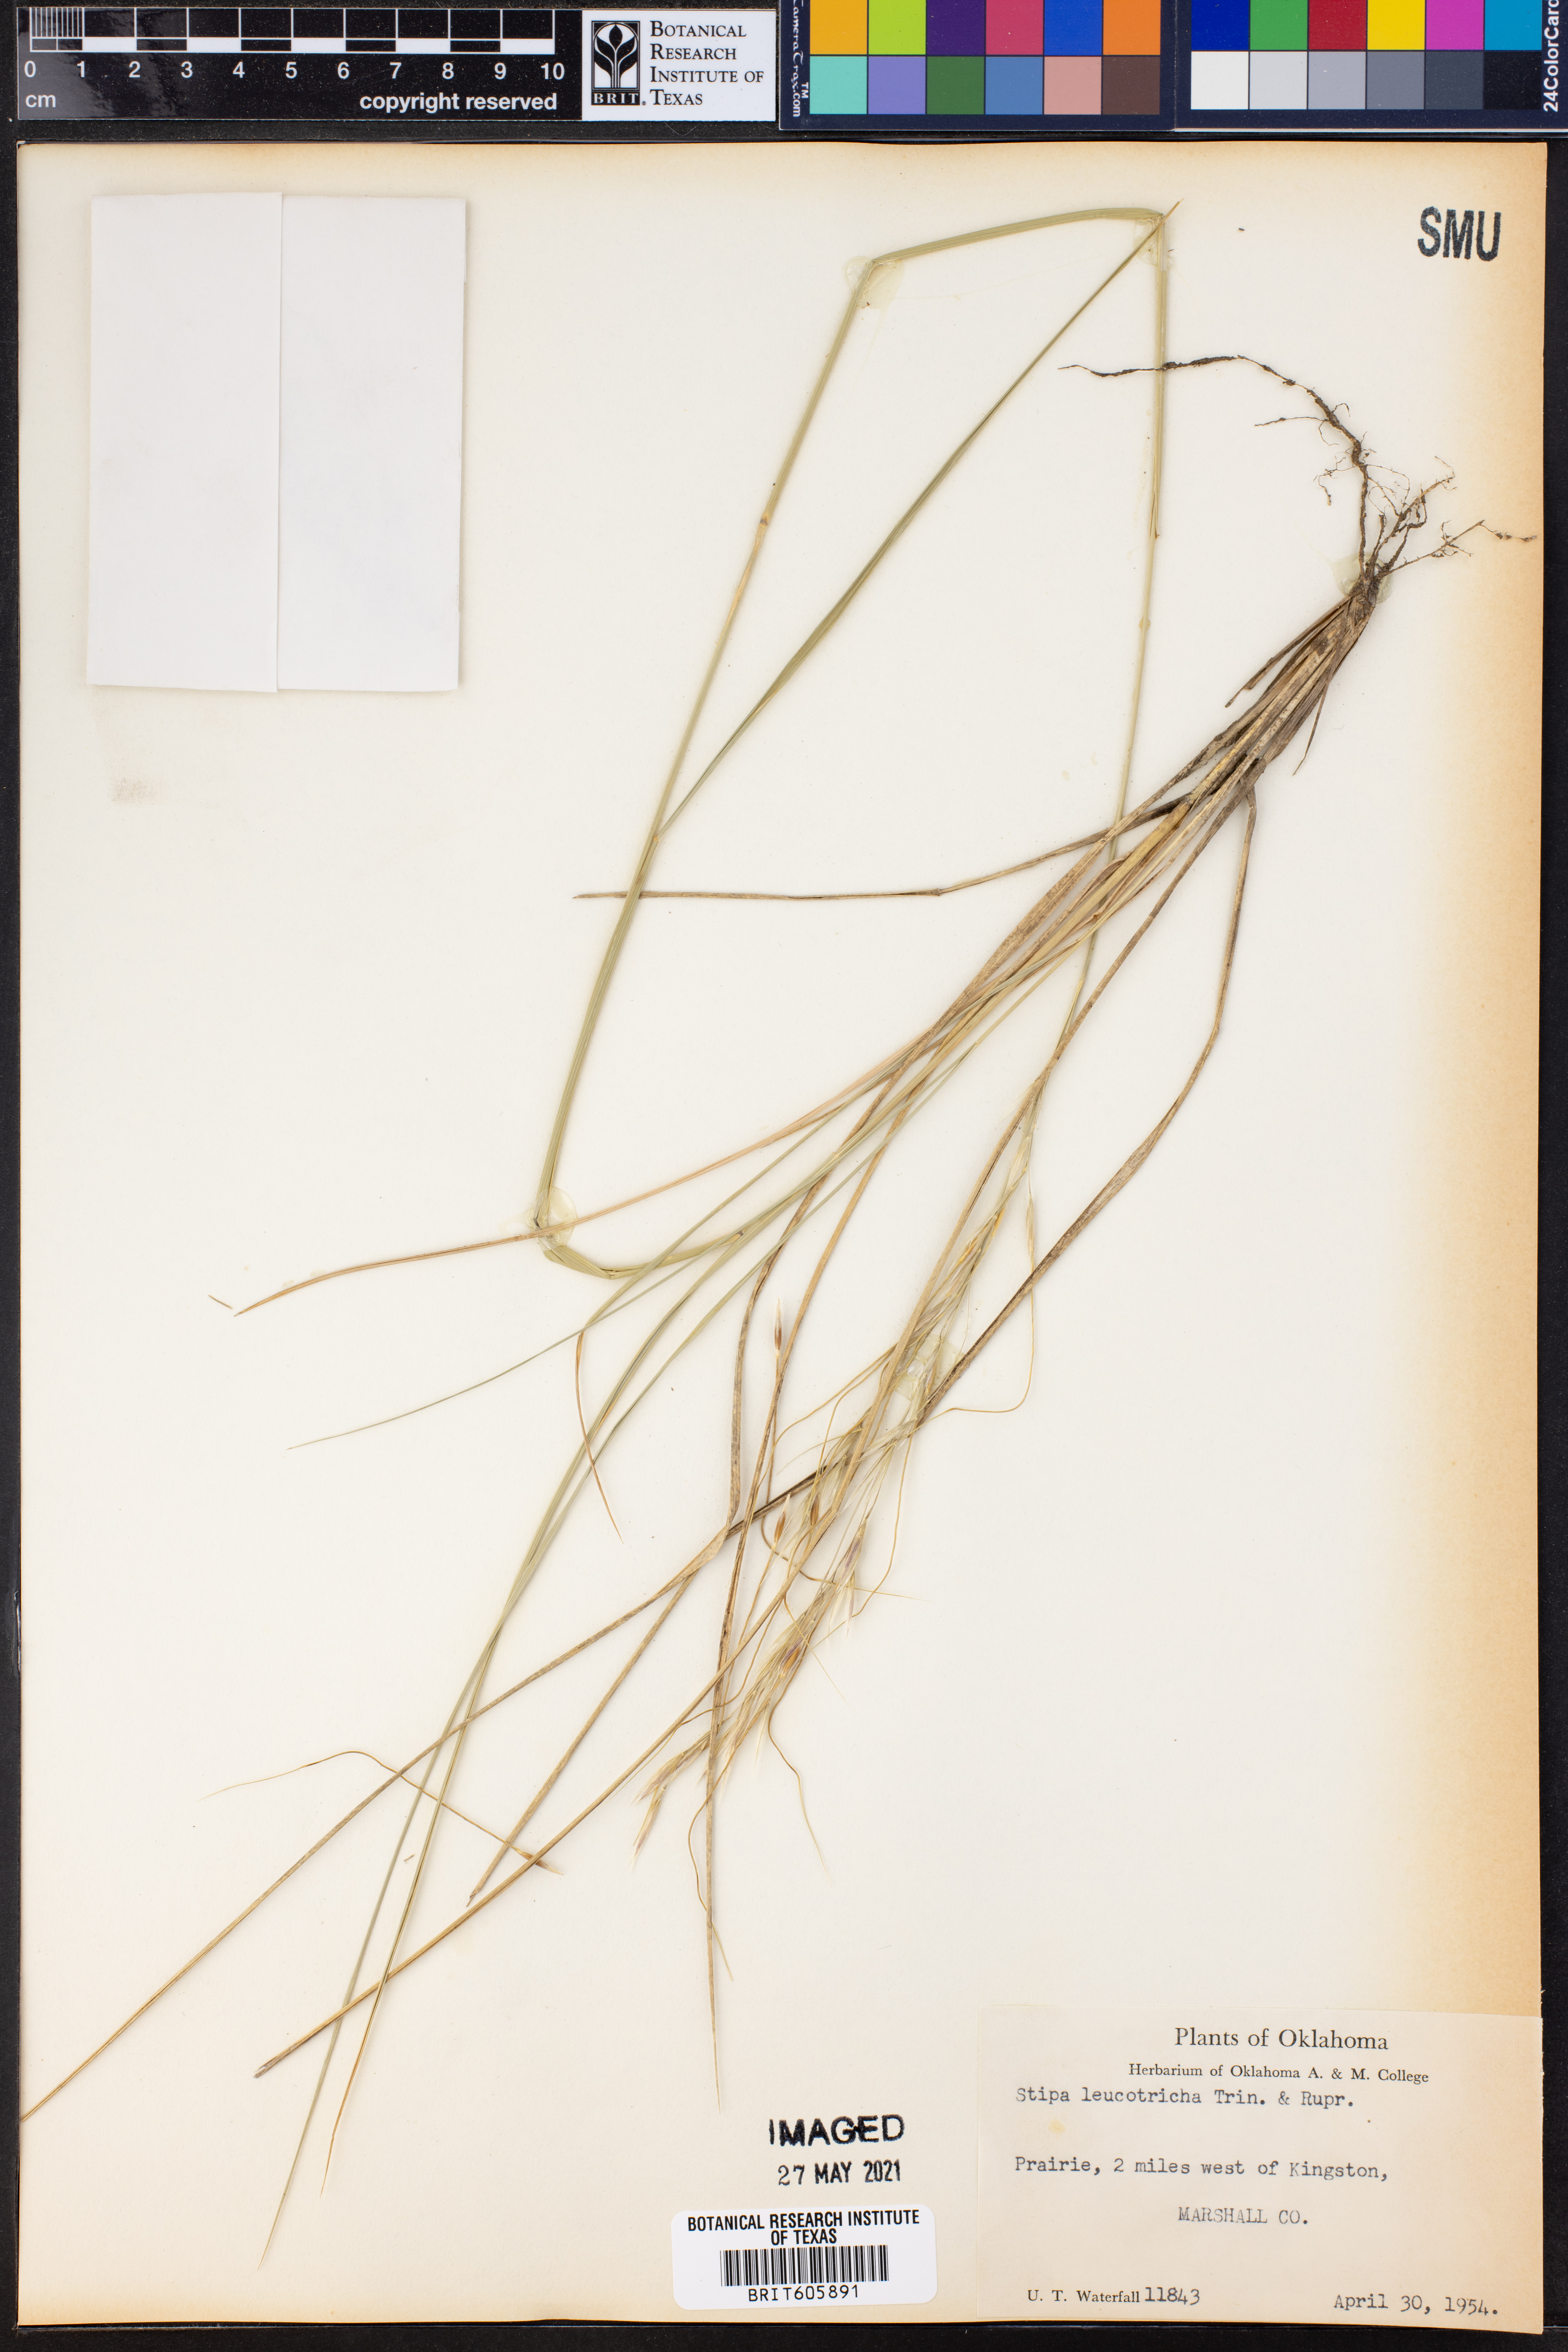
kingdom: Plantae
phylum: Tracheophyta
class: Liliopsida
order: Poales
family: Poaceae
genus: Nassella
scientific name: Nassella leucotricha
